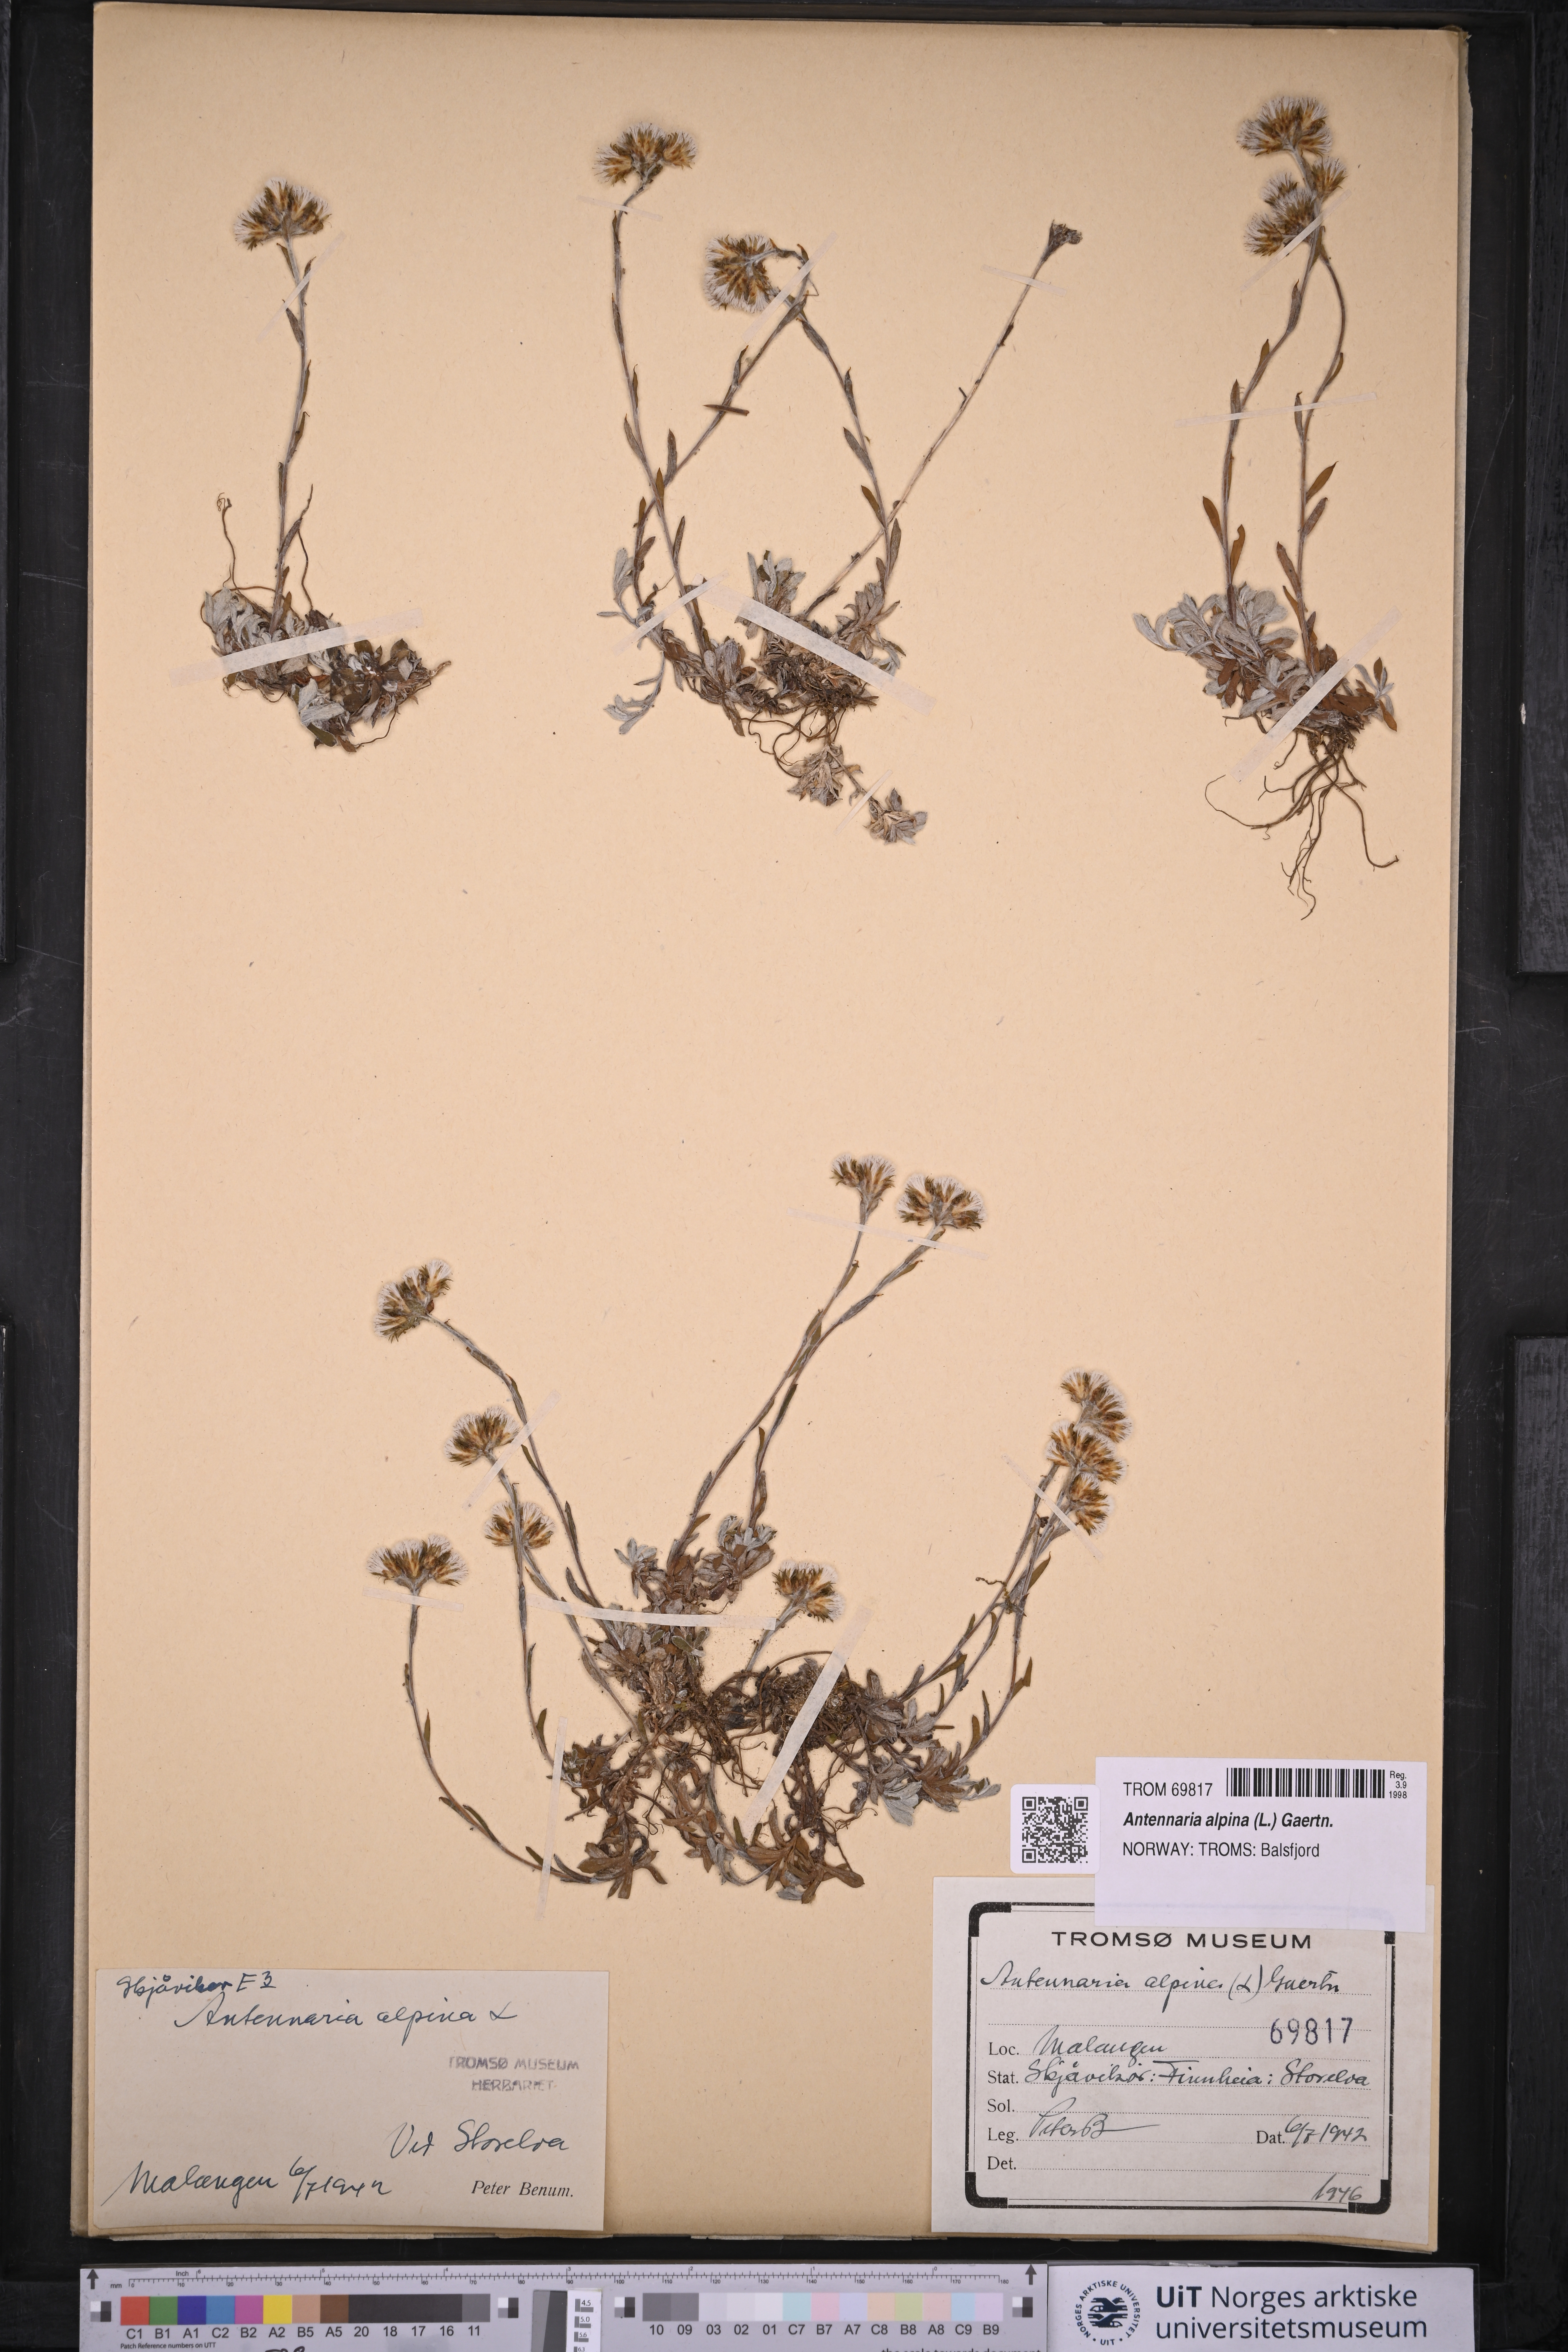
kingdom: Plantae
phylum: Tracheophyta
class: Magnoliopsida
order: Asterales
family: Asteraceae
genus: Antennaria
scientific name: Antennaria alpina
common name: Alpine pussytoes
